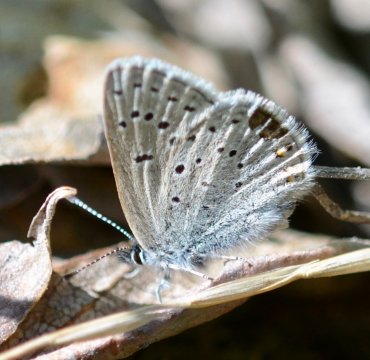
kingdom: Animalia
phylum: Arthropoda
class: Insecta
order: Lepidoptera
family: Lycaenidae
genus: Elkalyce
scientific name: Elkalyce amyntula
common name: Western Tailed-Blue
